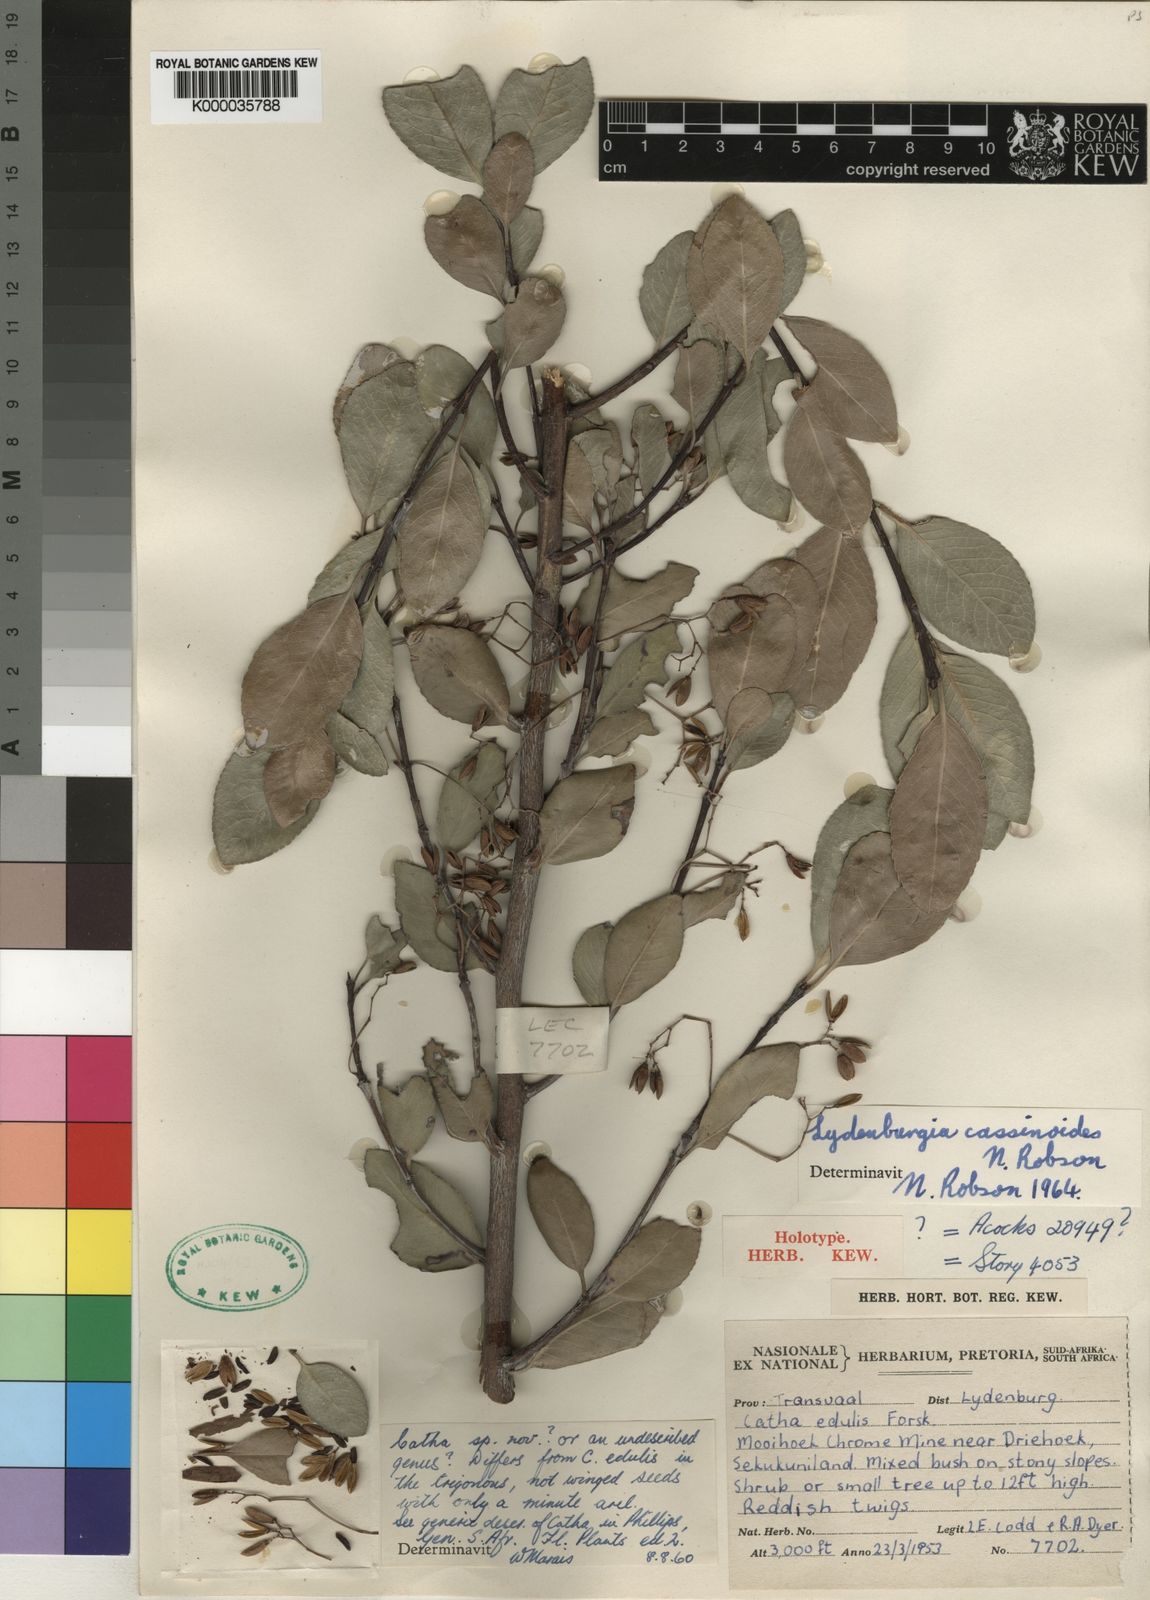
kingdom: Plantae
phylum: Tracheophyta
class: Magnoliopsida
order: Celastrales
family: Celastraceae
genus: Catha
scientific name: Catha edulis
